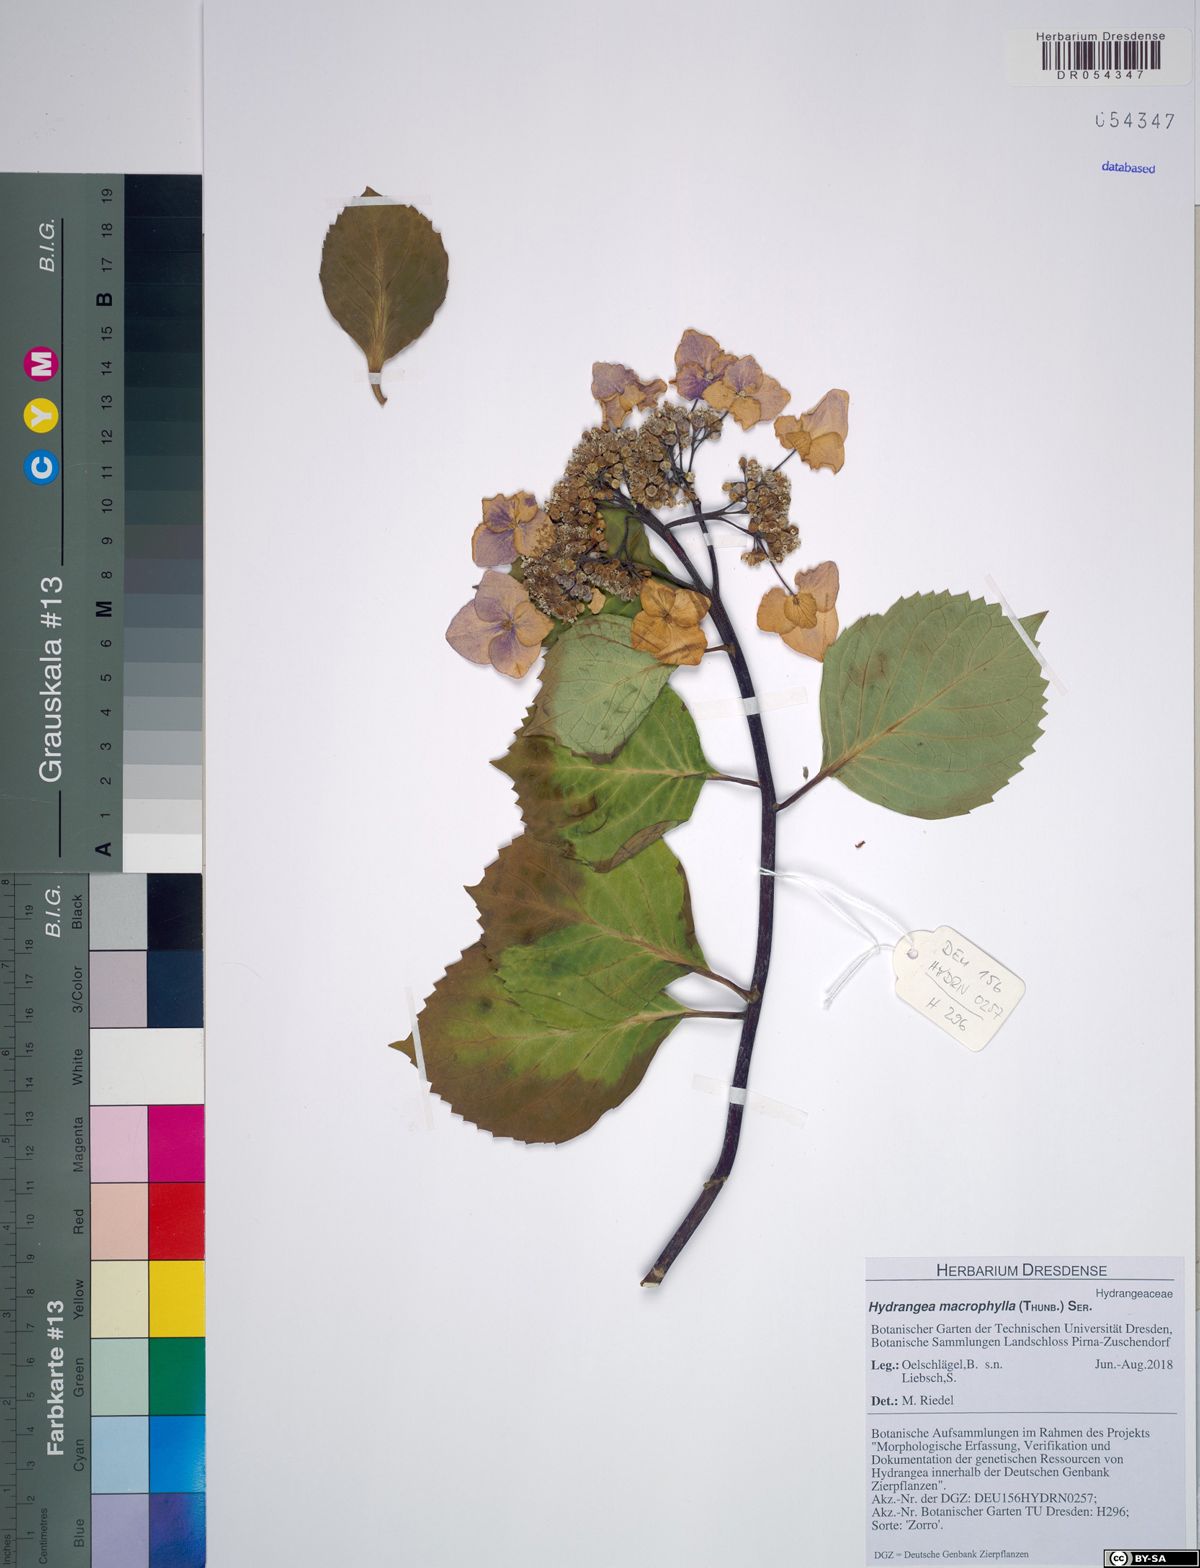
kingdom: Plantae
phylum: Tracheophyta
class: Magnoliopsida
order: Cornales
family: Hydrangeaceae
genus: Hydrangea
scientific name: Hydrangea macrophylla
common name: Hydrangea
